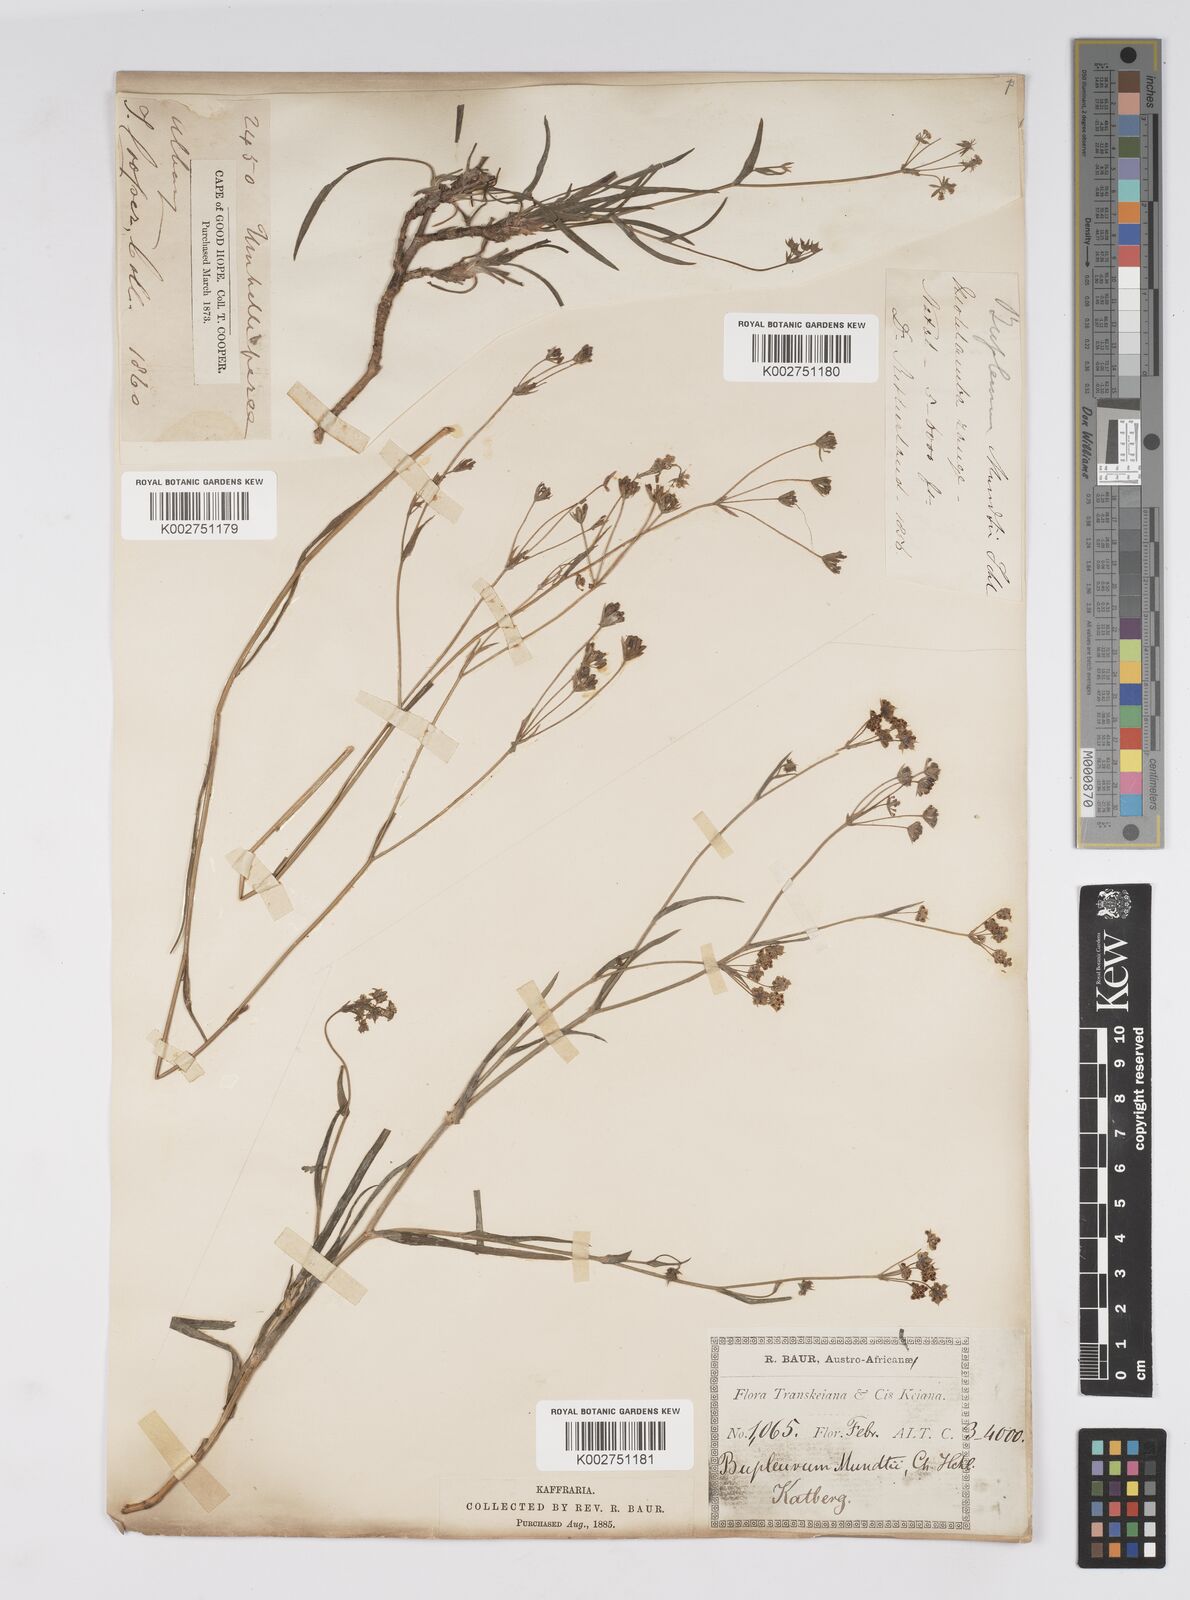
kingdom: Plantae
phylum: Tracheophyta
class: Magnoliopsida
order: Apiales
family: Apiaceae
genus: Bupleurum
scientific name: Bupleurum mundii
